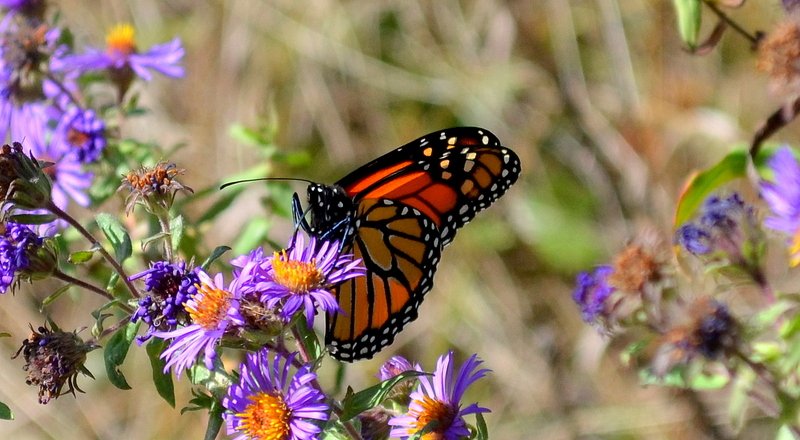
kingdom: Animalia
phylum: Arthropoda
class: Insecta
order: Lepidoptera
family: Nymphalidae
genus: Danaus
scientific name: Danaus plexippus
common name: Monarch
